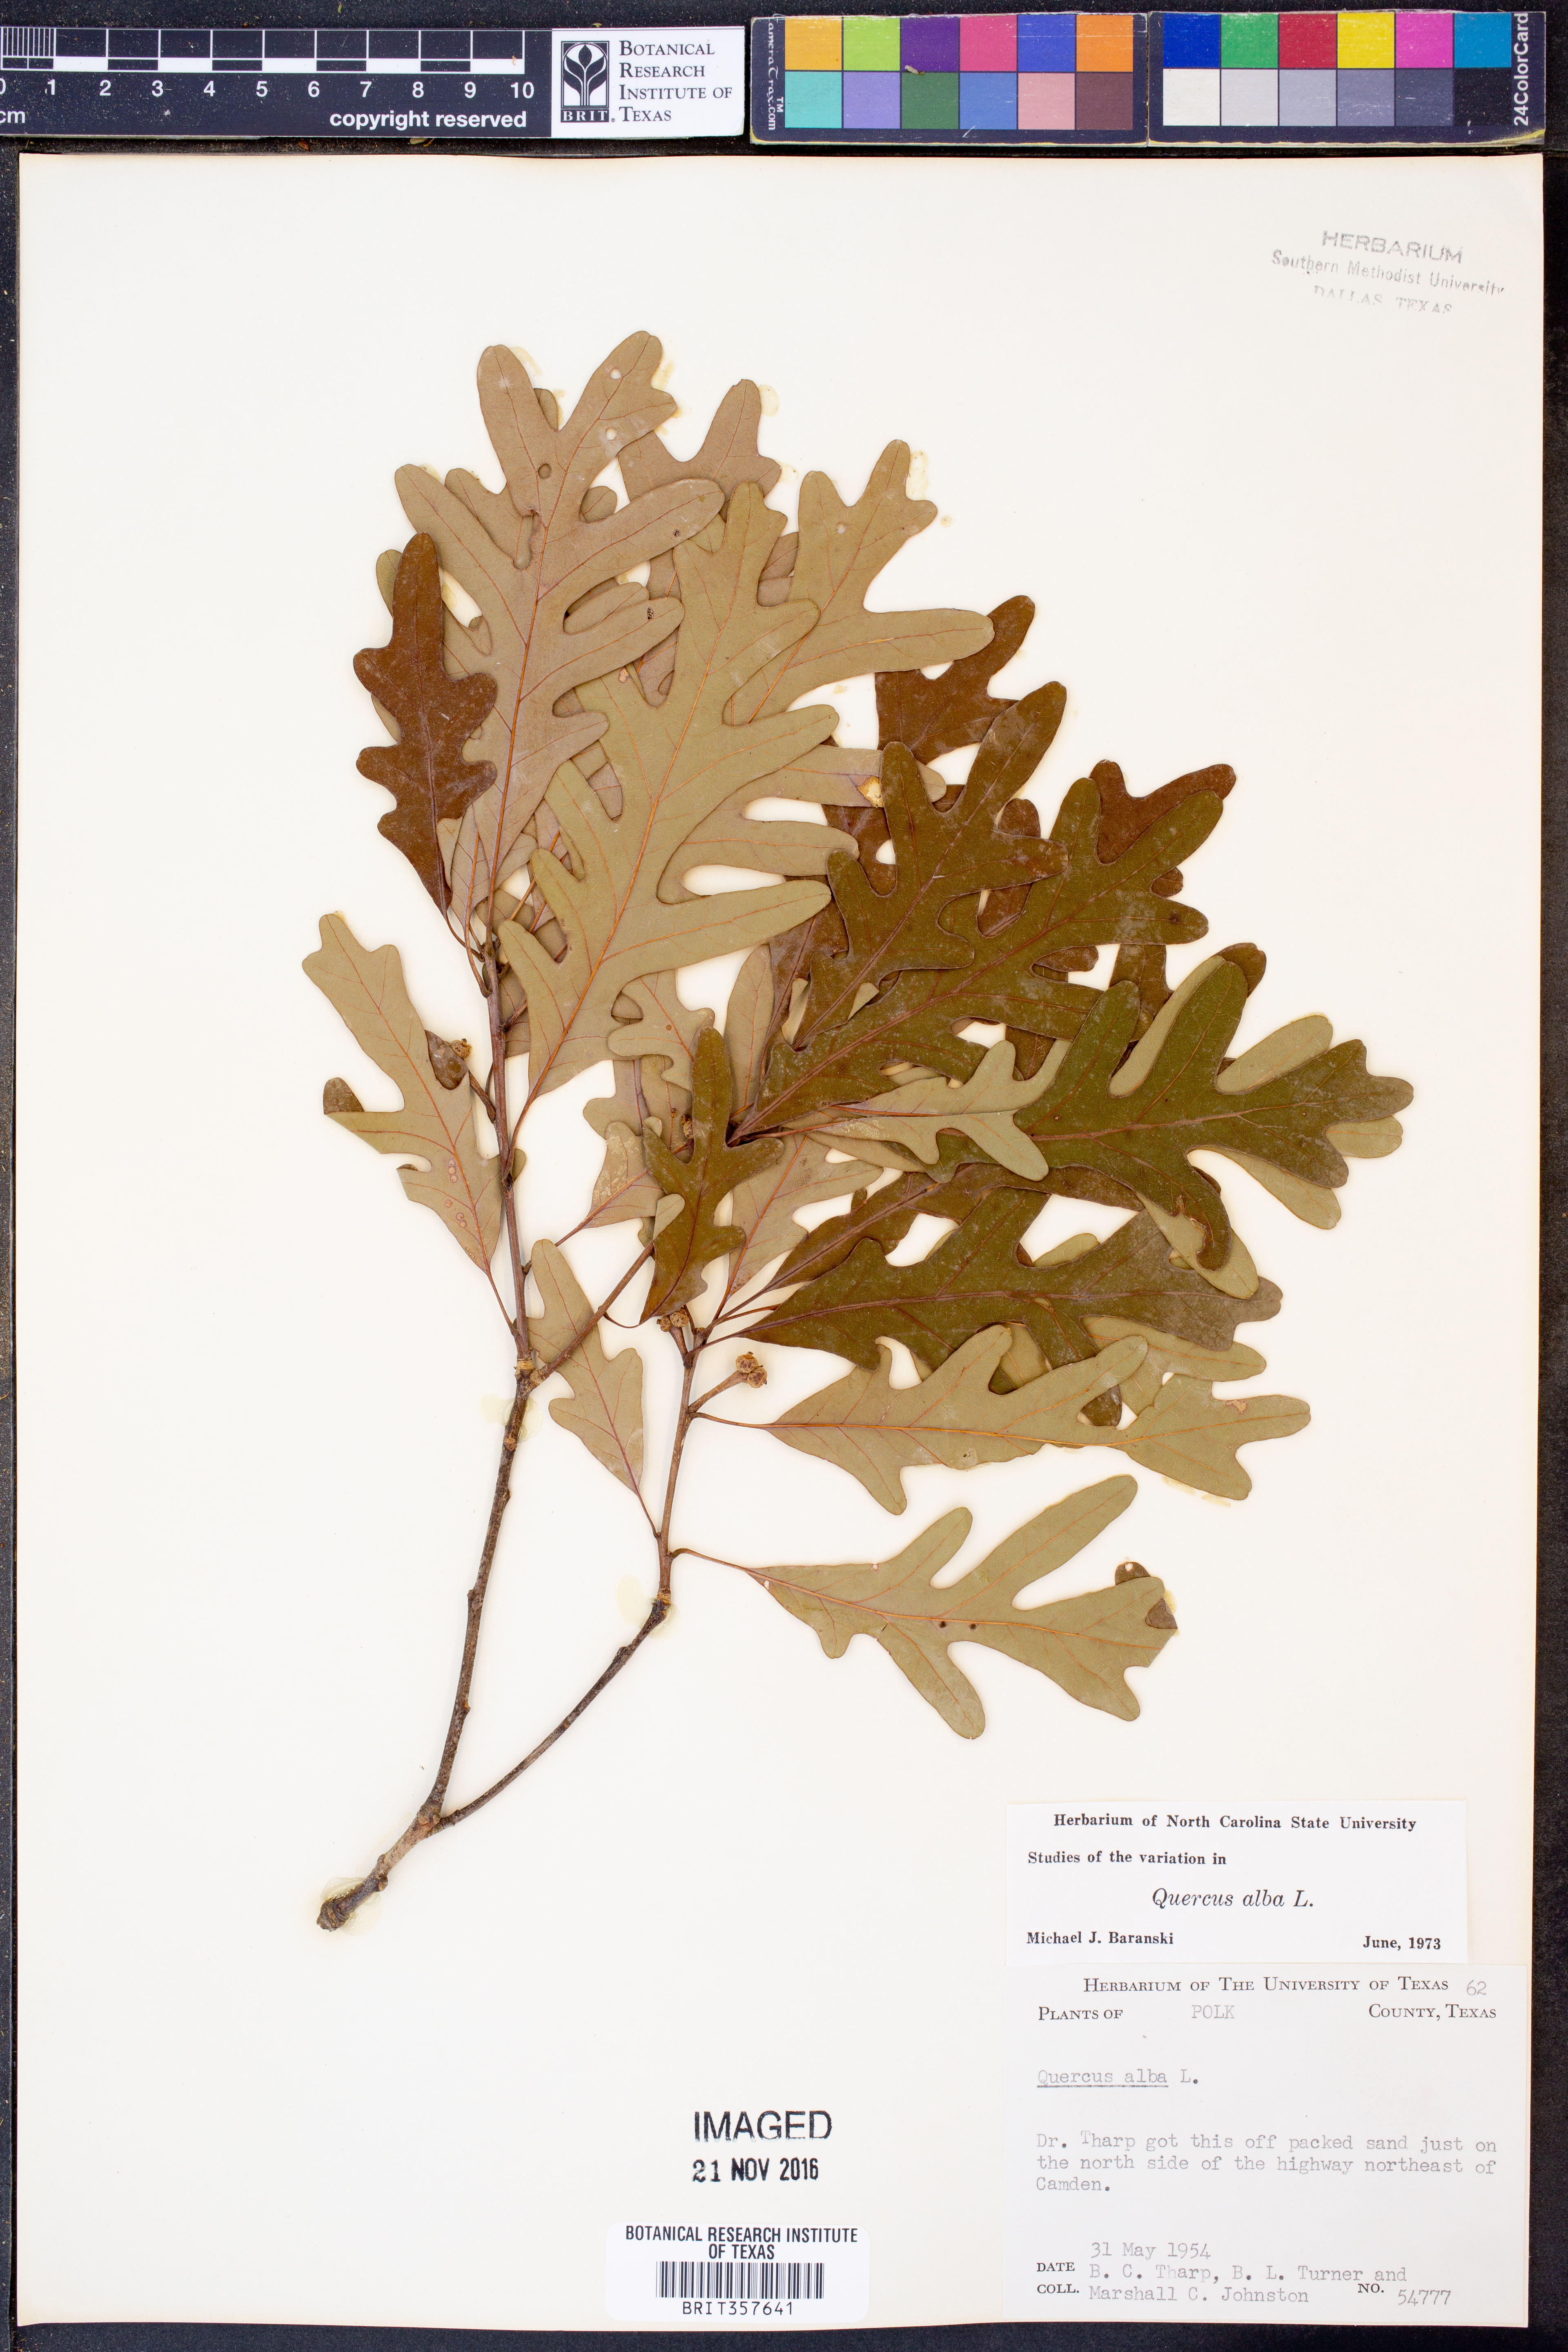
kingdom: Plantae
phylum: Tracheophyta
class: Magnoliopsida
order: Fagales
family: Fagaceae
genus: Quercus
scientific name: Quercus alba
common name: White oak
